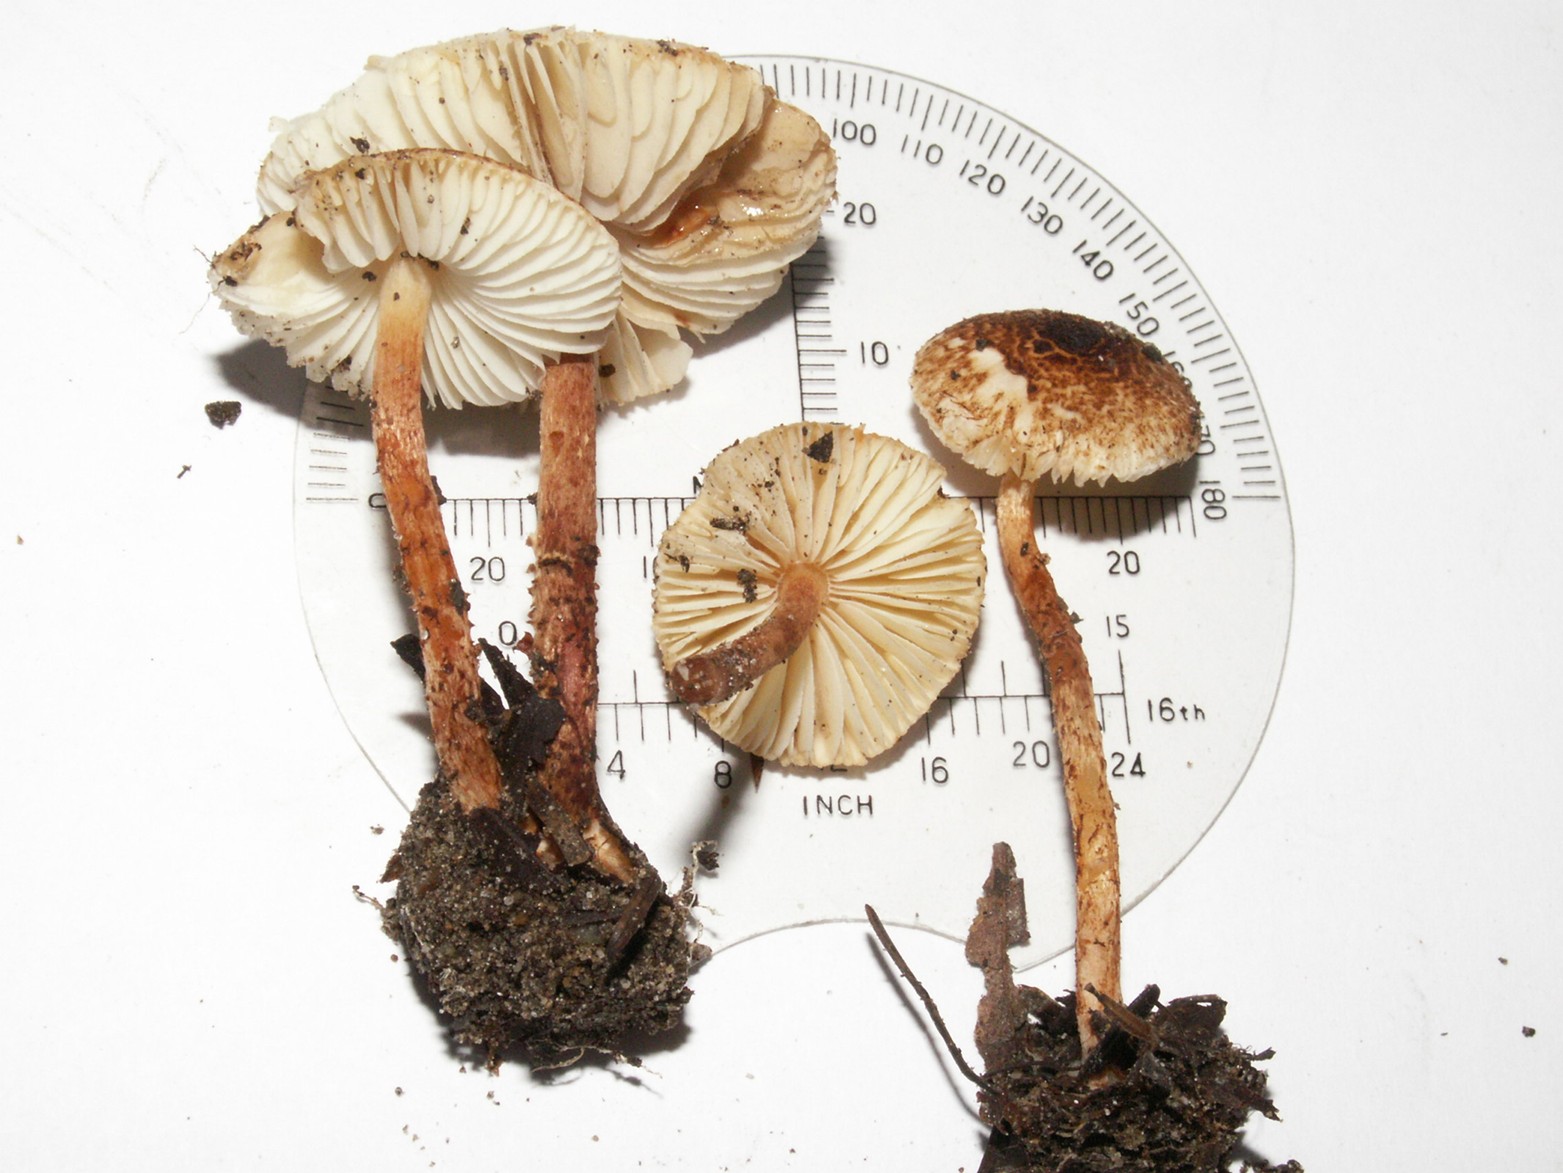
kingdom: Fungi
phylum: Basidiomycota
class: Agaricomycetes
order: Agaricales
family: Agaricaceae
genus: Lepiota
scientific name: Lepiota castanea
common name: kastaniebrun parasolhat
